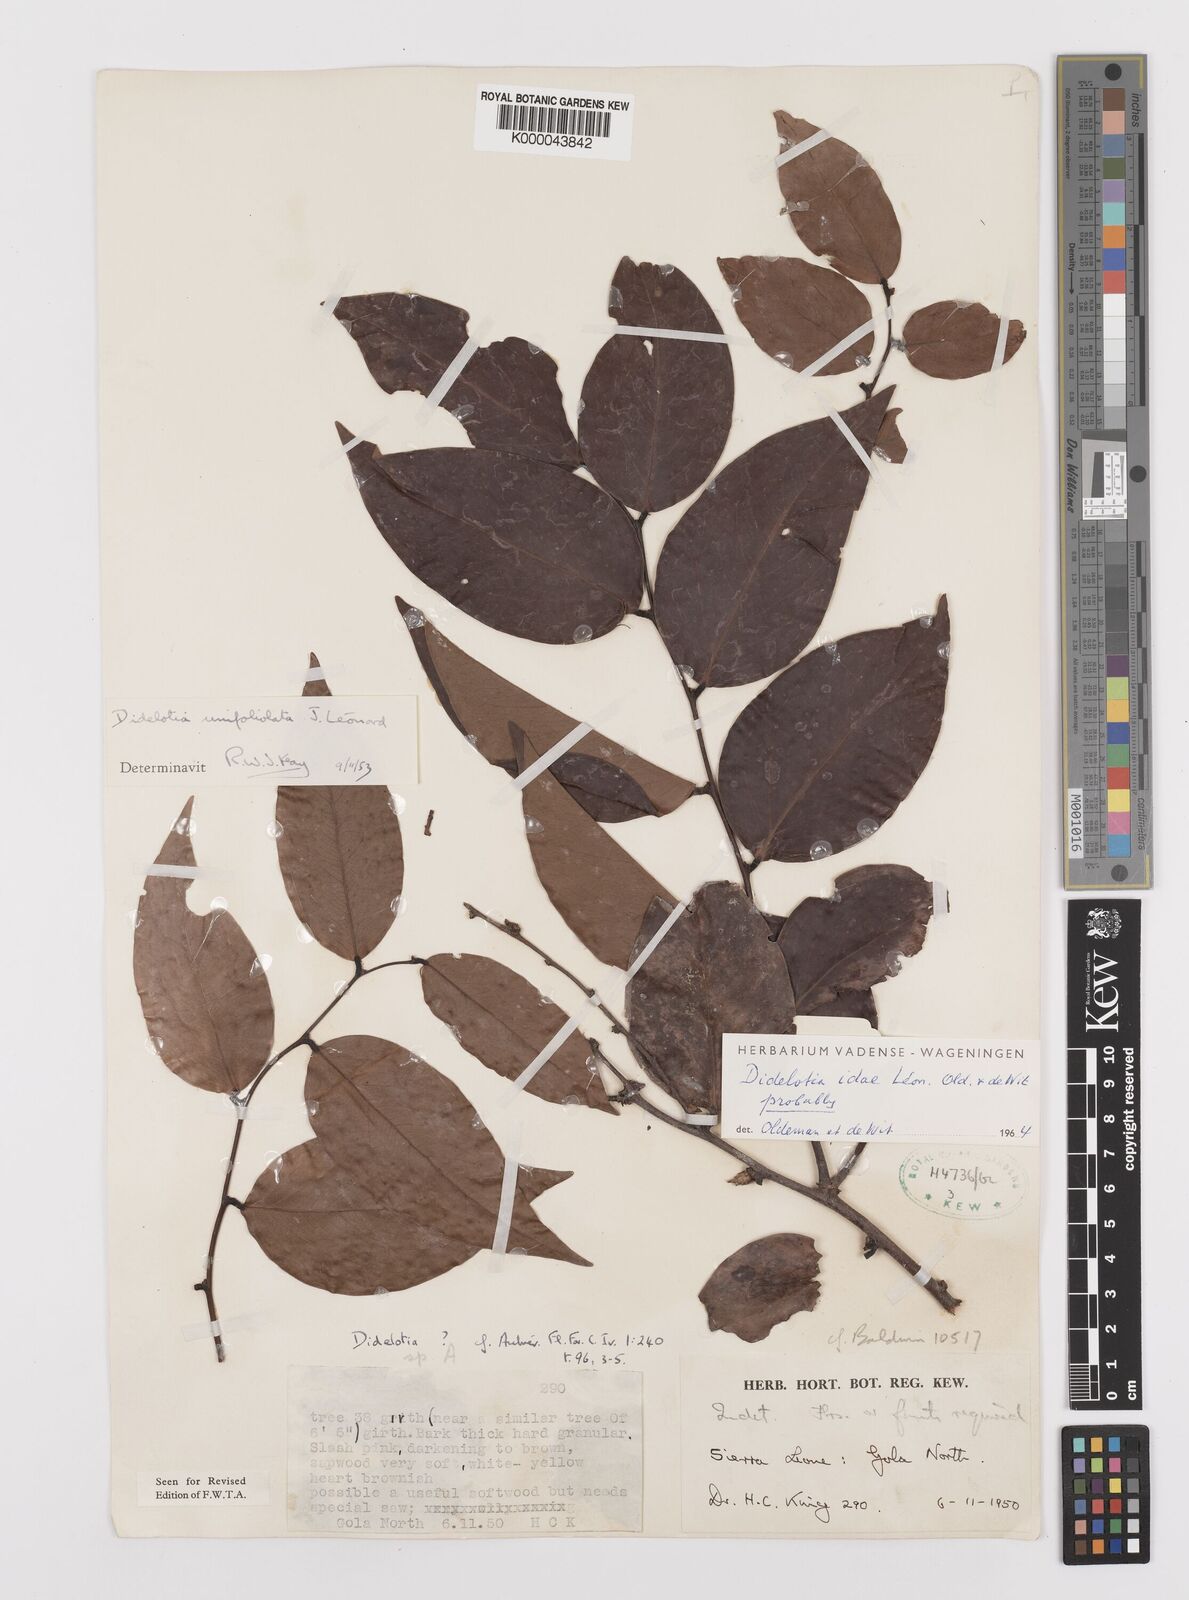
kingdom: Plantae
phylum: Tracheophyta
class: Magnoliopsida
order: Fabales
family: Fabaceae
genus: Didelotia
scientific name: Didelotia
